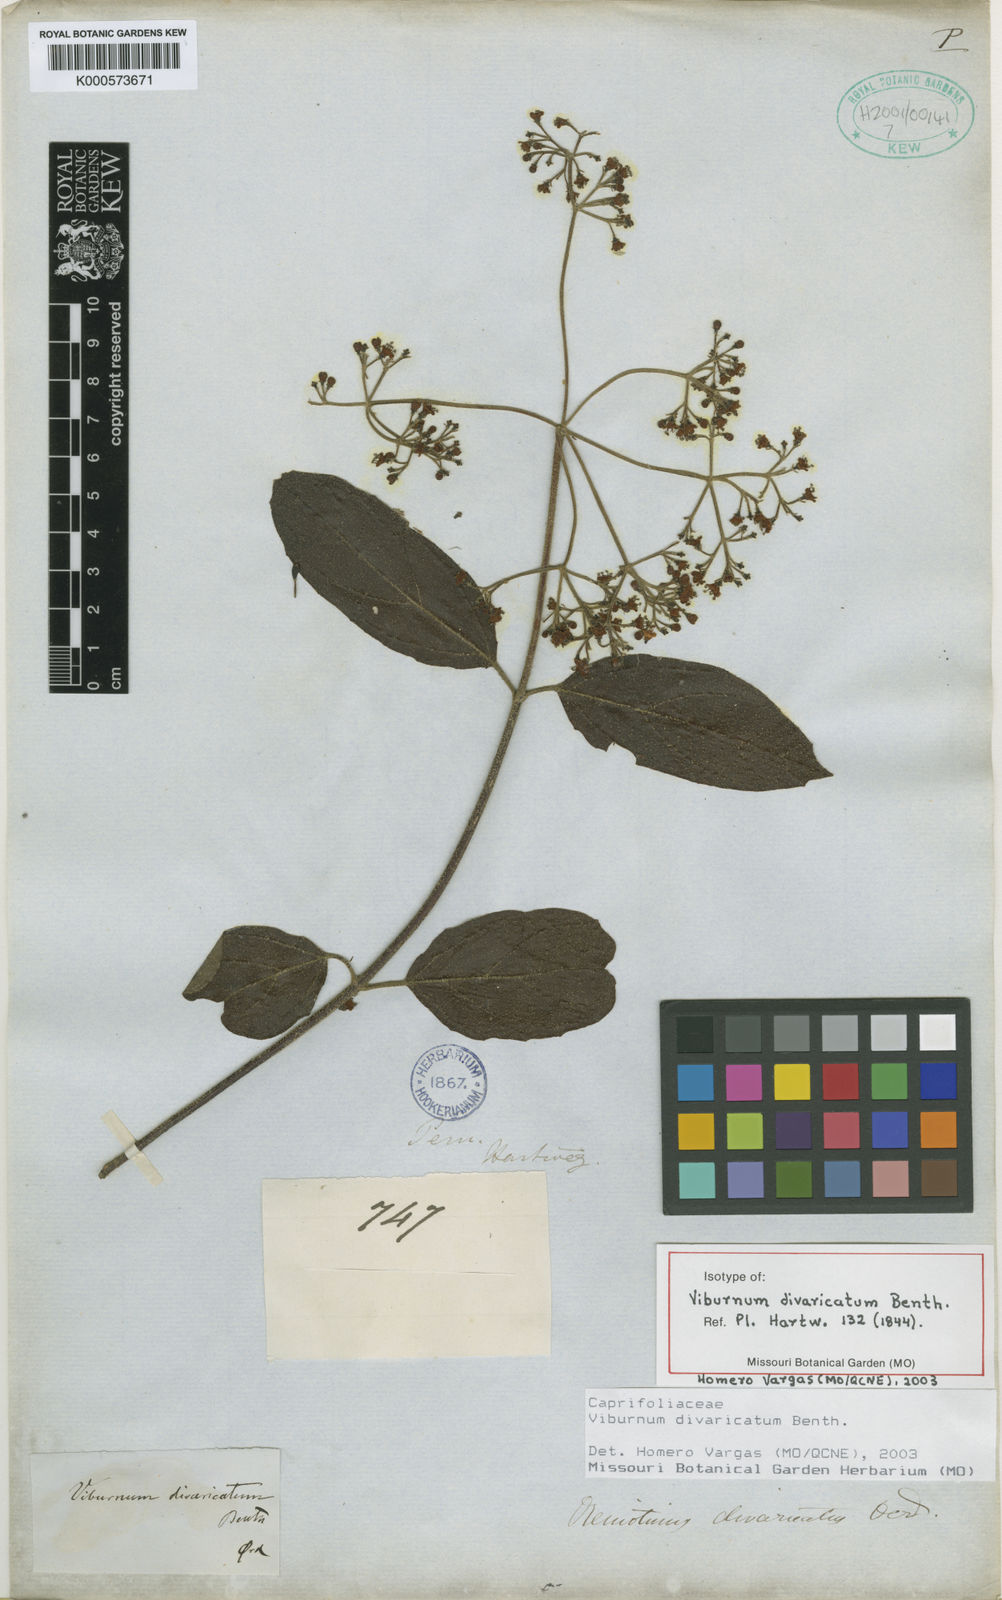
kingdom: Plantae
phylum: Tracheophyta
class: Magnoliopsida
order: Dipsacales
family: Viburnaceae
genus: Viburnum
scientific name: Viburnum divaricatum
